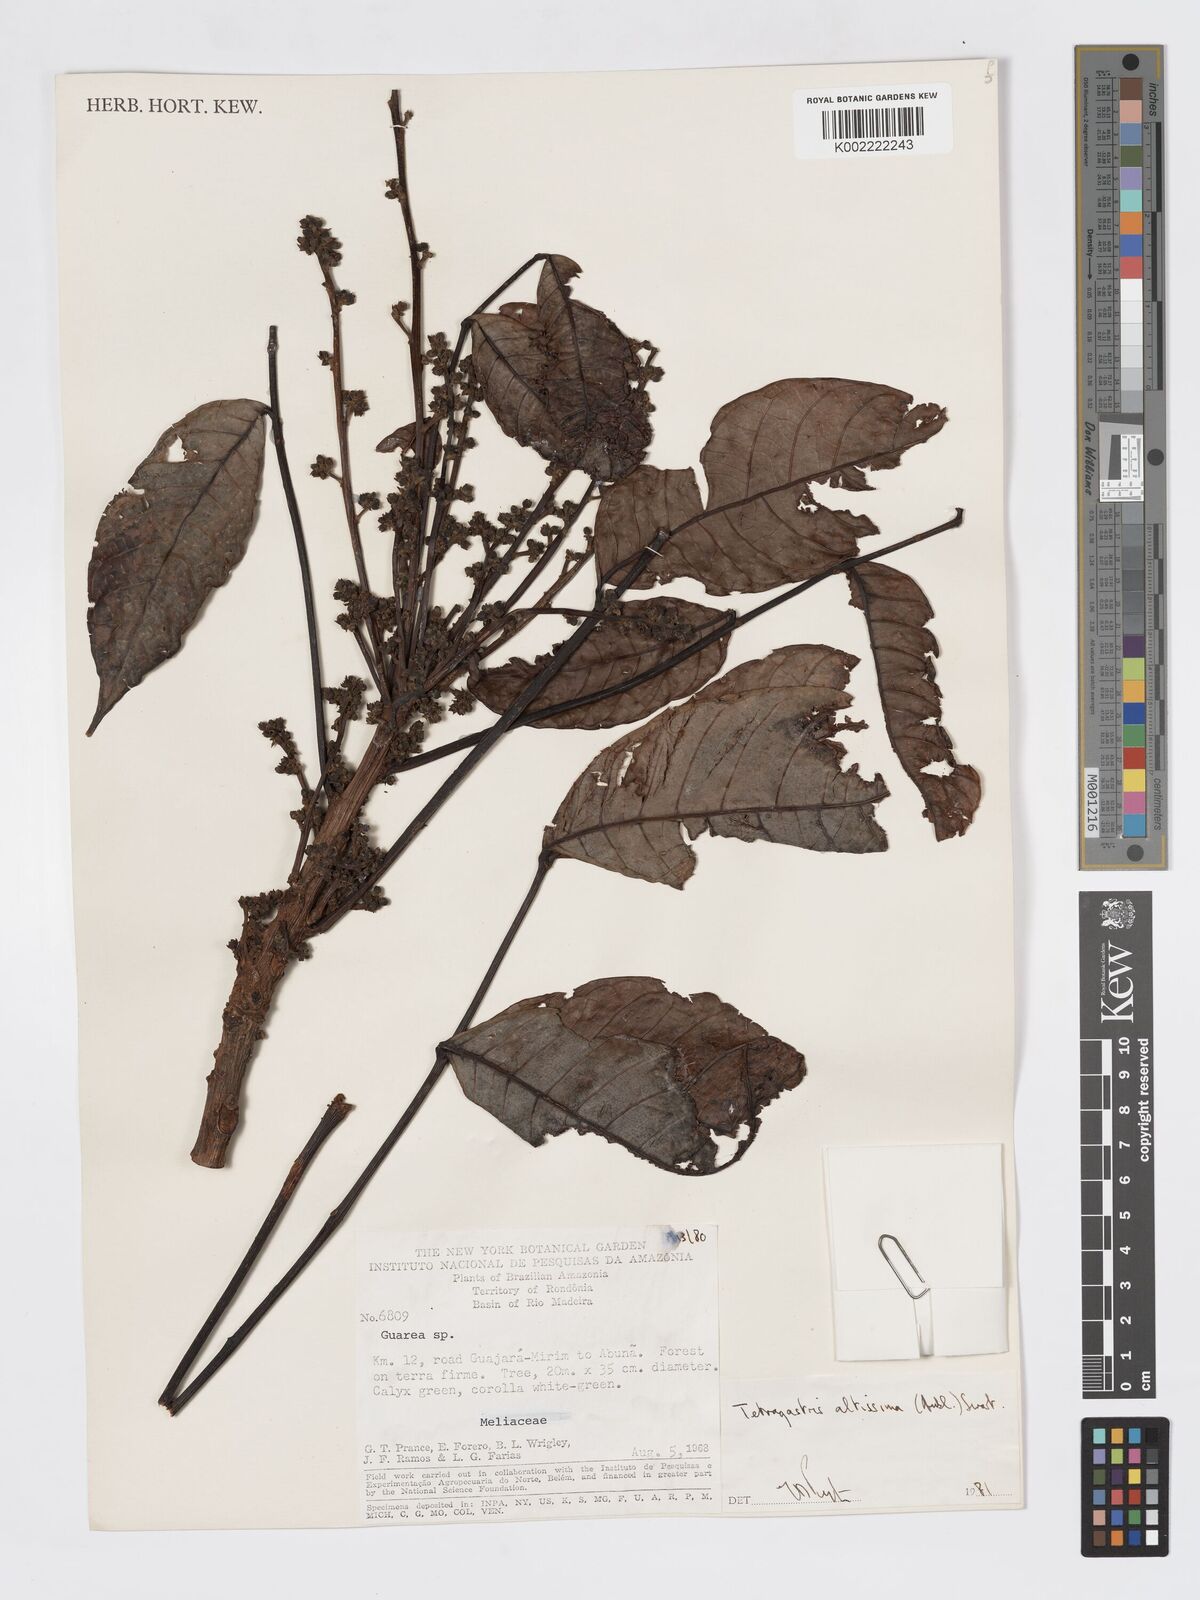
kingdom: Plantae
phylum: Tracheophyta
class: Magnoliopsida
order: Sapindales
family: Burseraceae
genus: Tetragastris
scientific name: Tetragastris altissima
